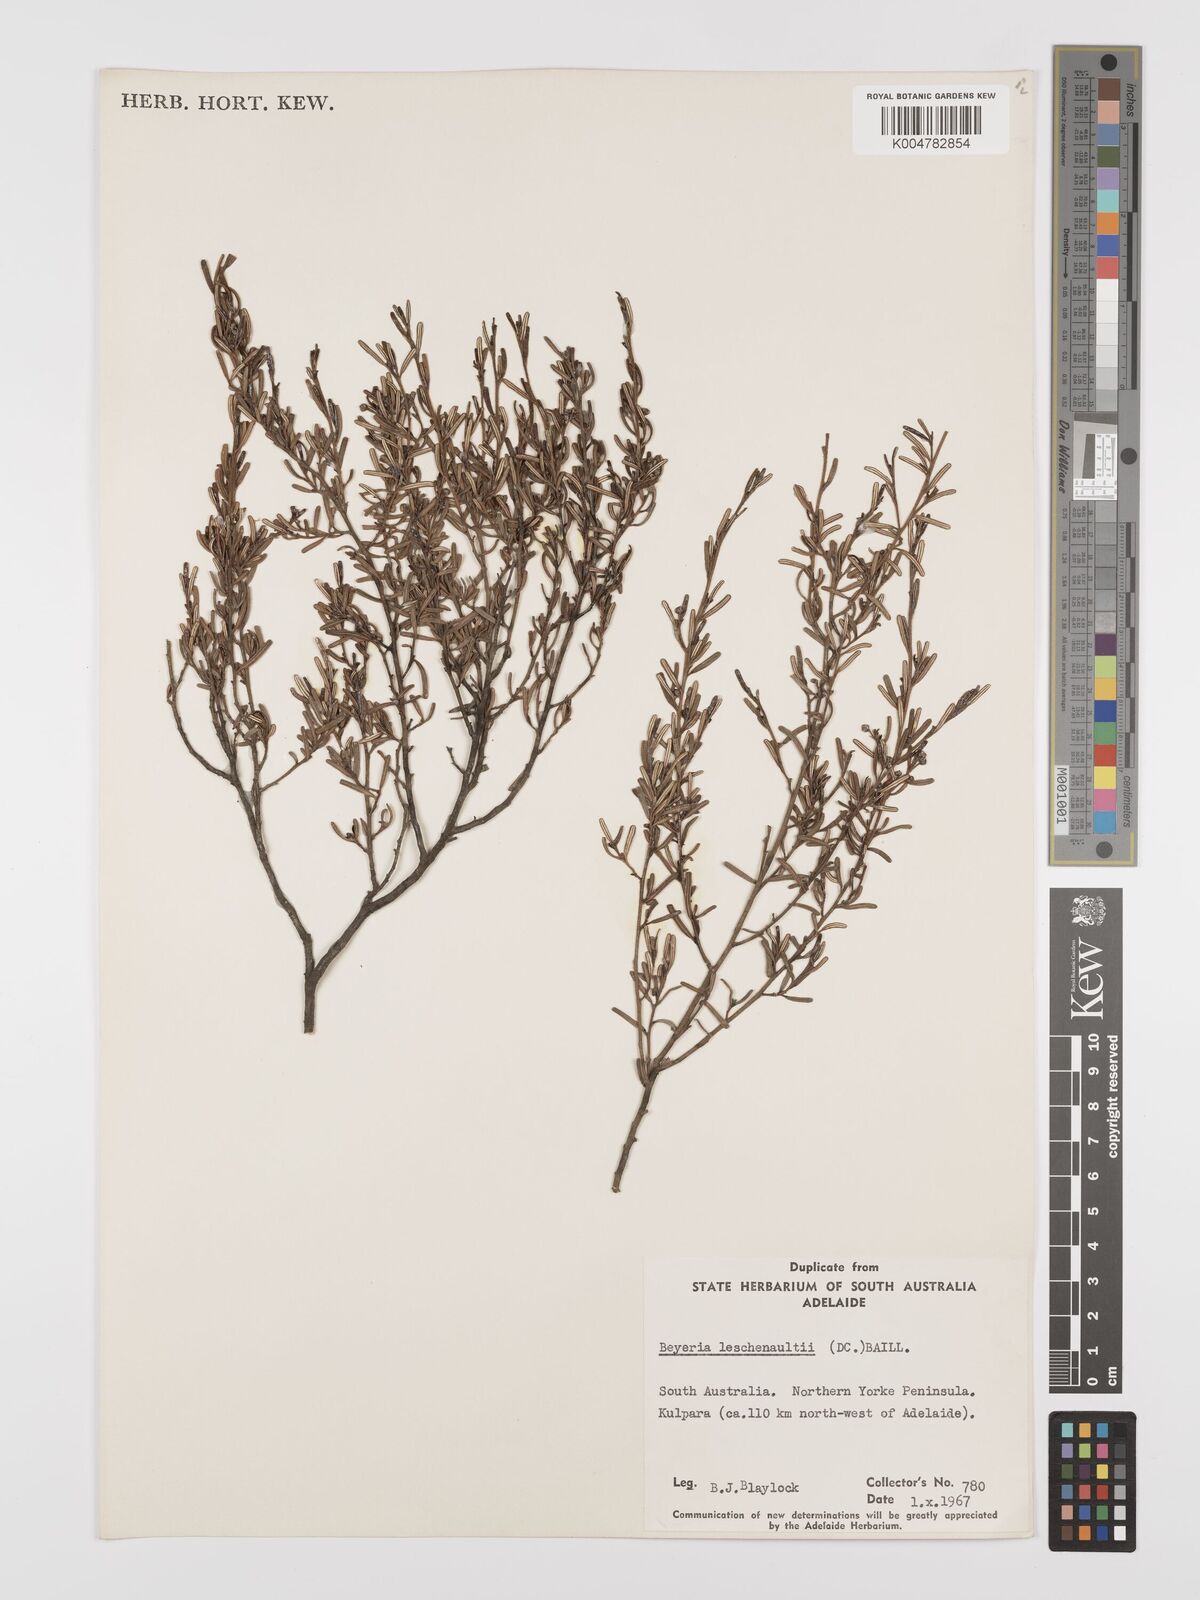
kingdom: Plantae
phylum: Tracheophyta
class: Magnoliopsida
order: Malpighiales
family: Euphorbiaceae
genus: Beyeria
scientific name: Beyeria lechenaultii
